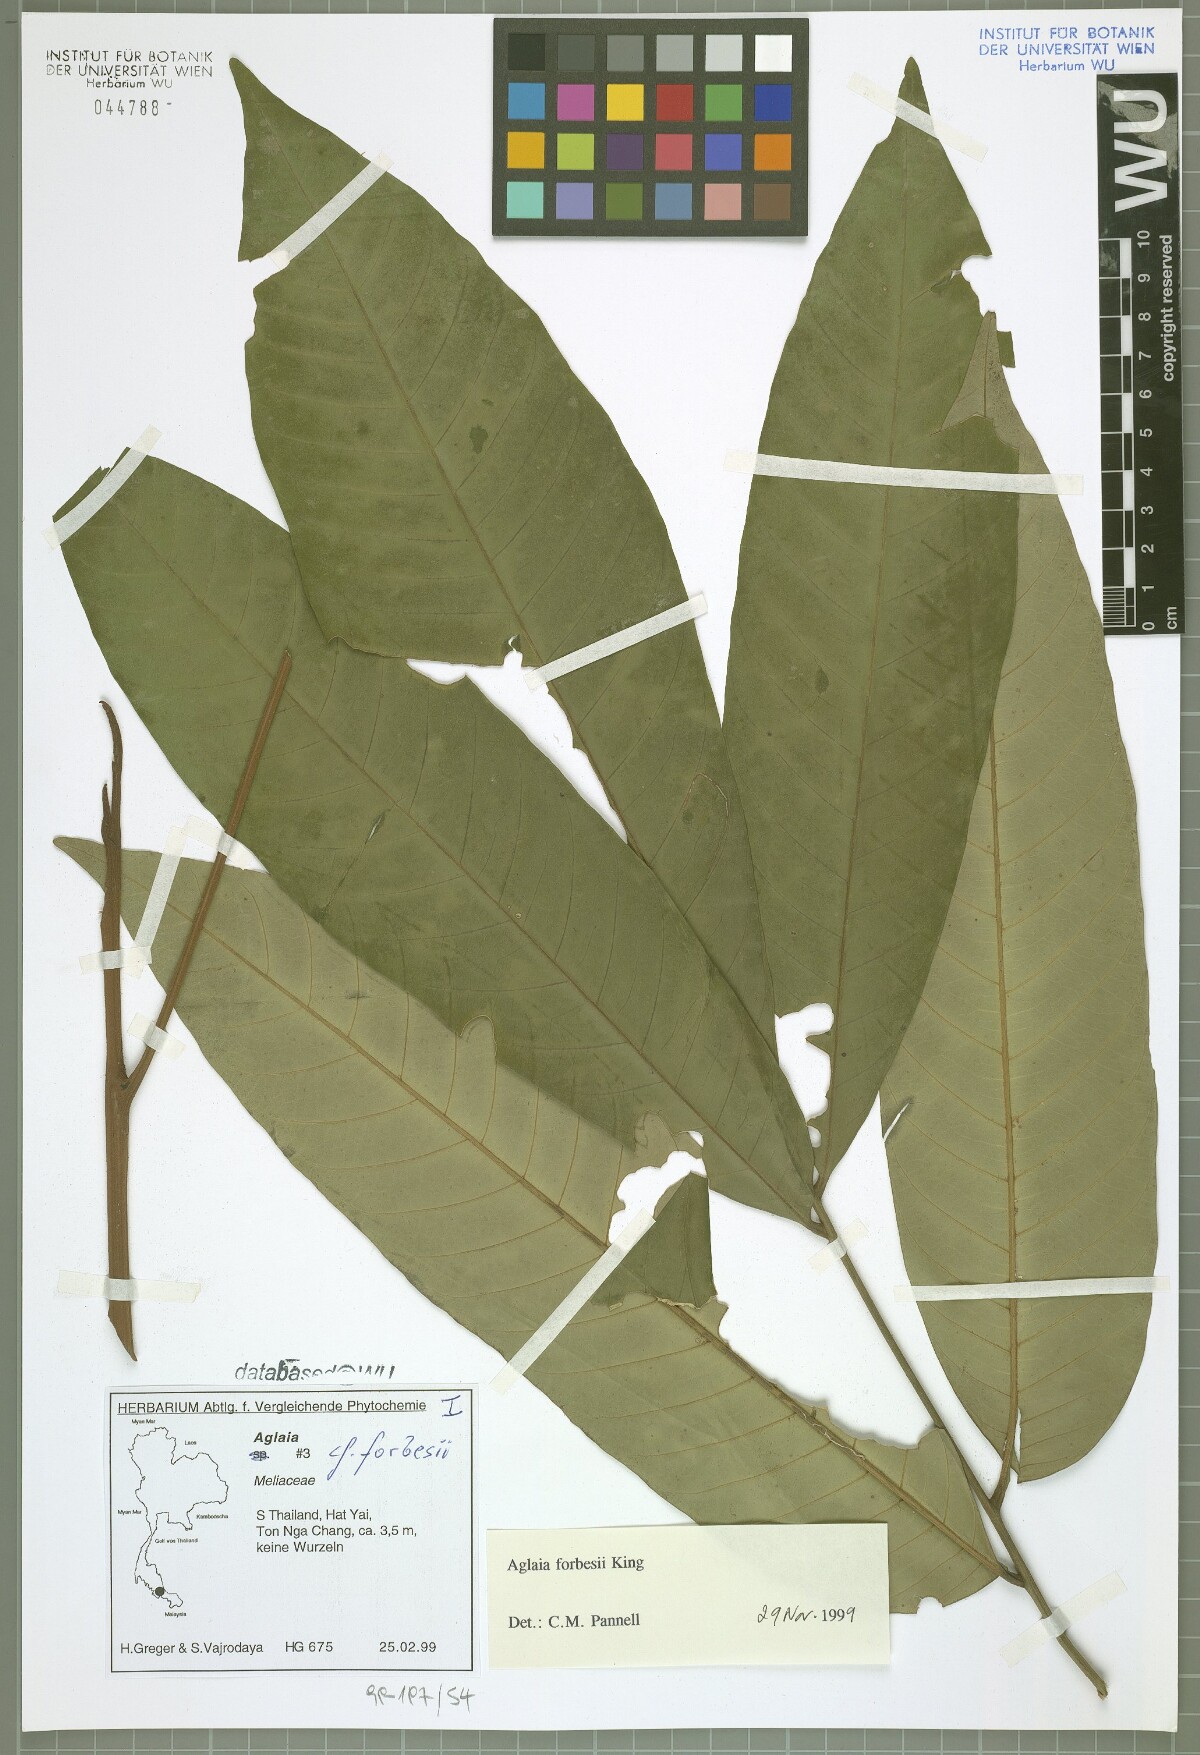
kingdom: Plantae
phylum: Tracheophyta
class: Magnoliopsida
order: Sapindales
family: Meliaceae
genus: Aglaia
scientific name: Aglaia forbesii
